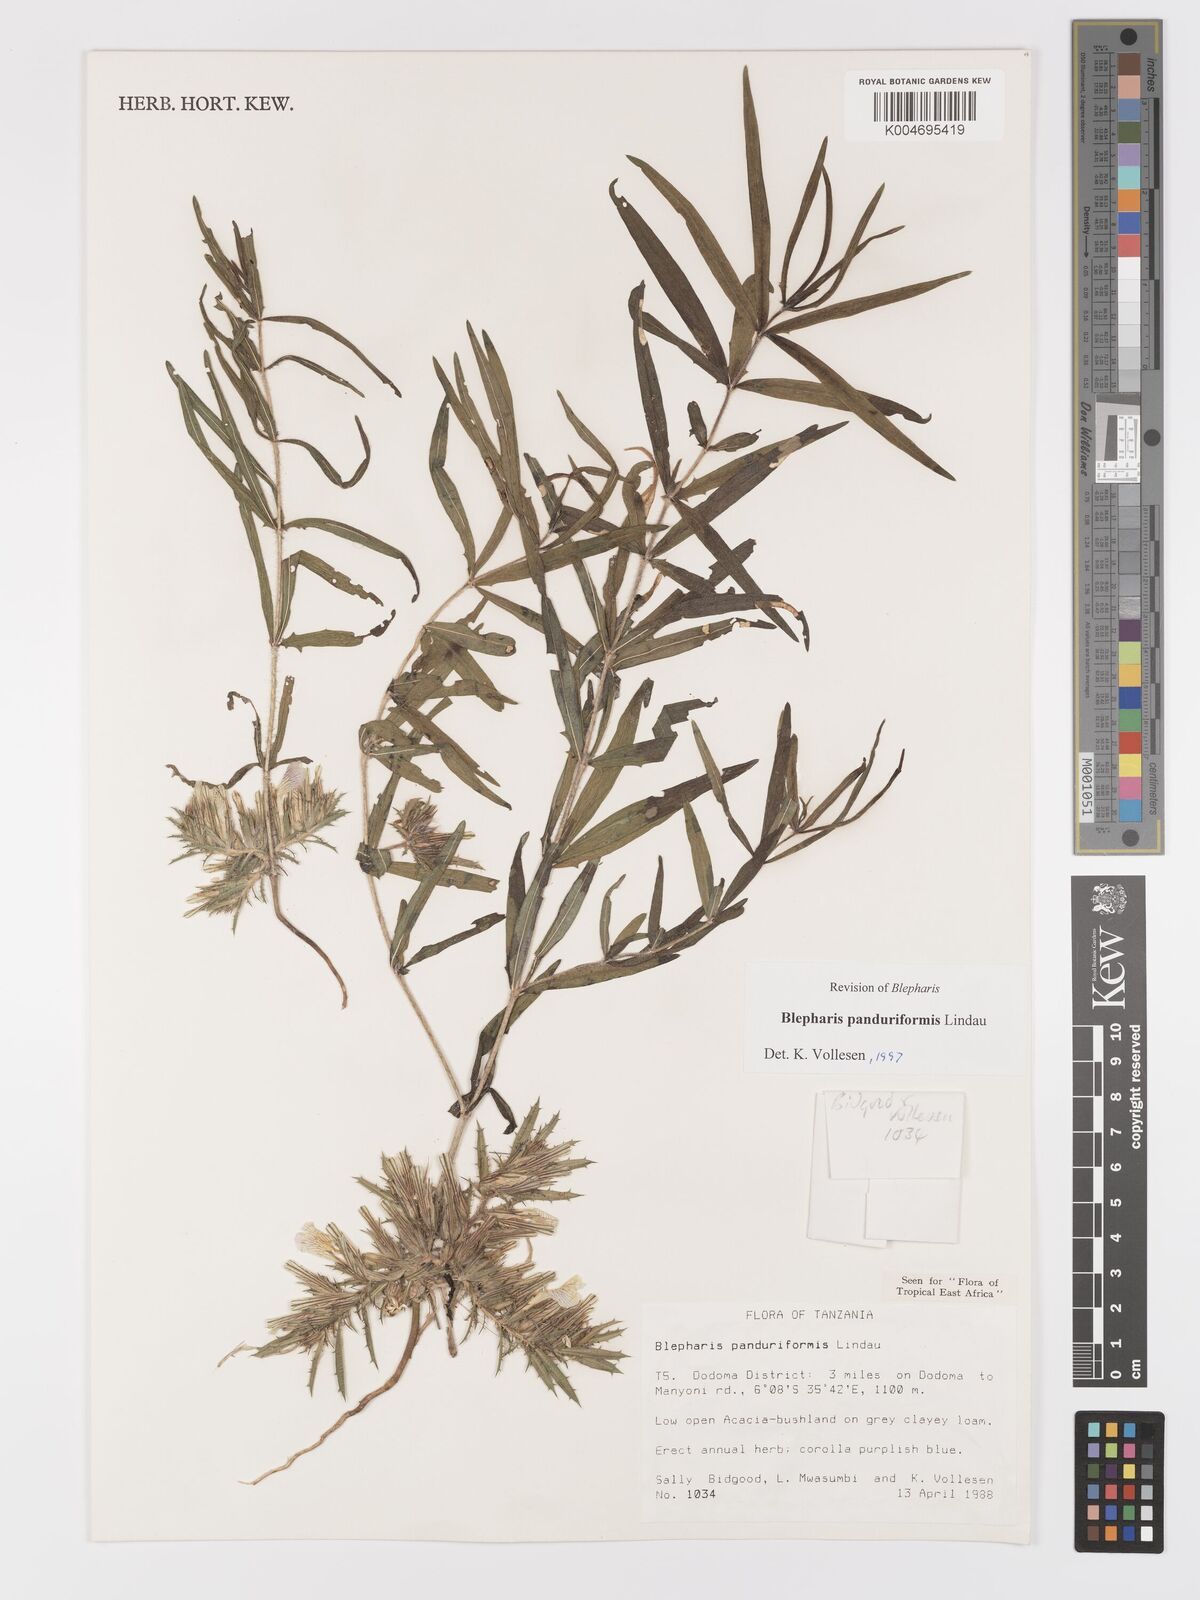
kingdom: Plantae
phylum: Tracheophyta
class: Magnoliopsida
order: Lamiales
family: Acanthaceae
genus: Blepharis
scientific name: Blepharis panduriformis
